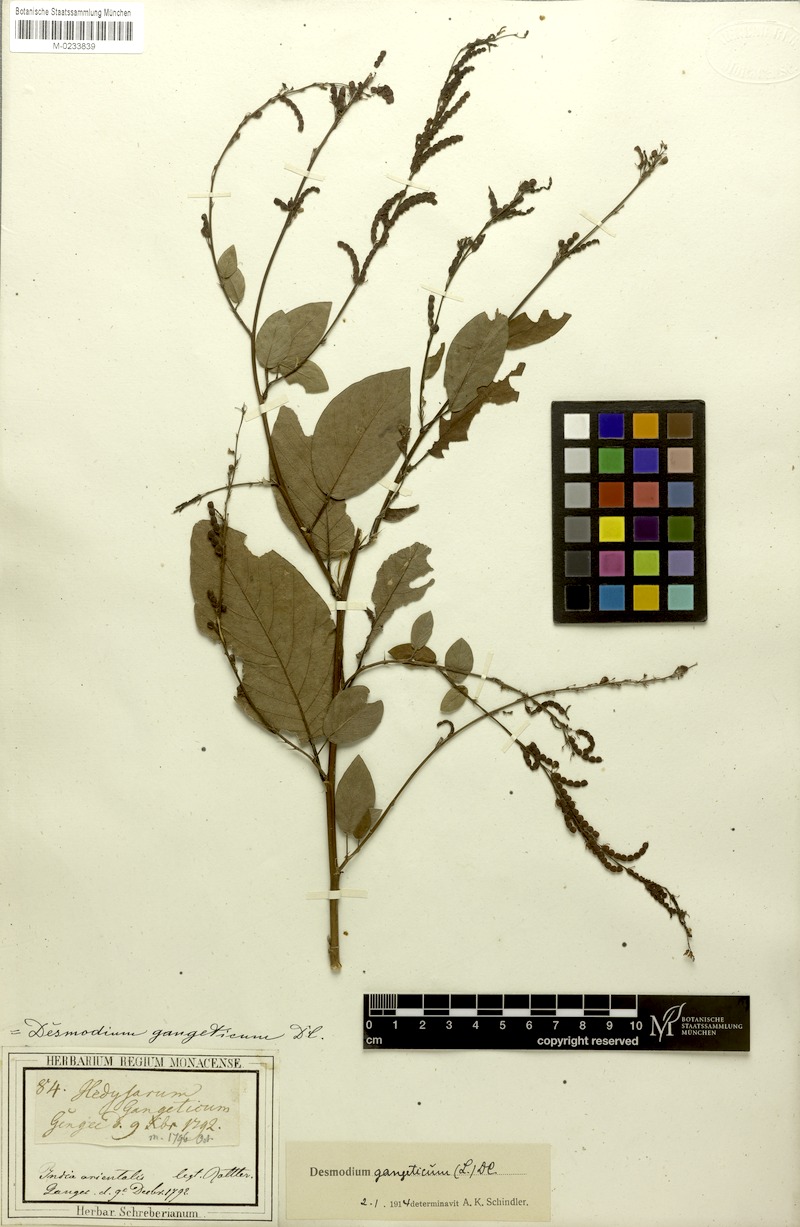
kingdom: Plantae
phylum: Tracheophyta
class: Magnoliopsida
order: Fabales
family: Fabaceae
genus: Pleurolobus
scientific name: Pleurolobus gangeticus
